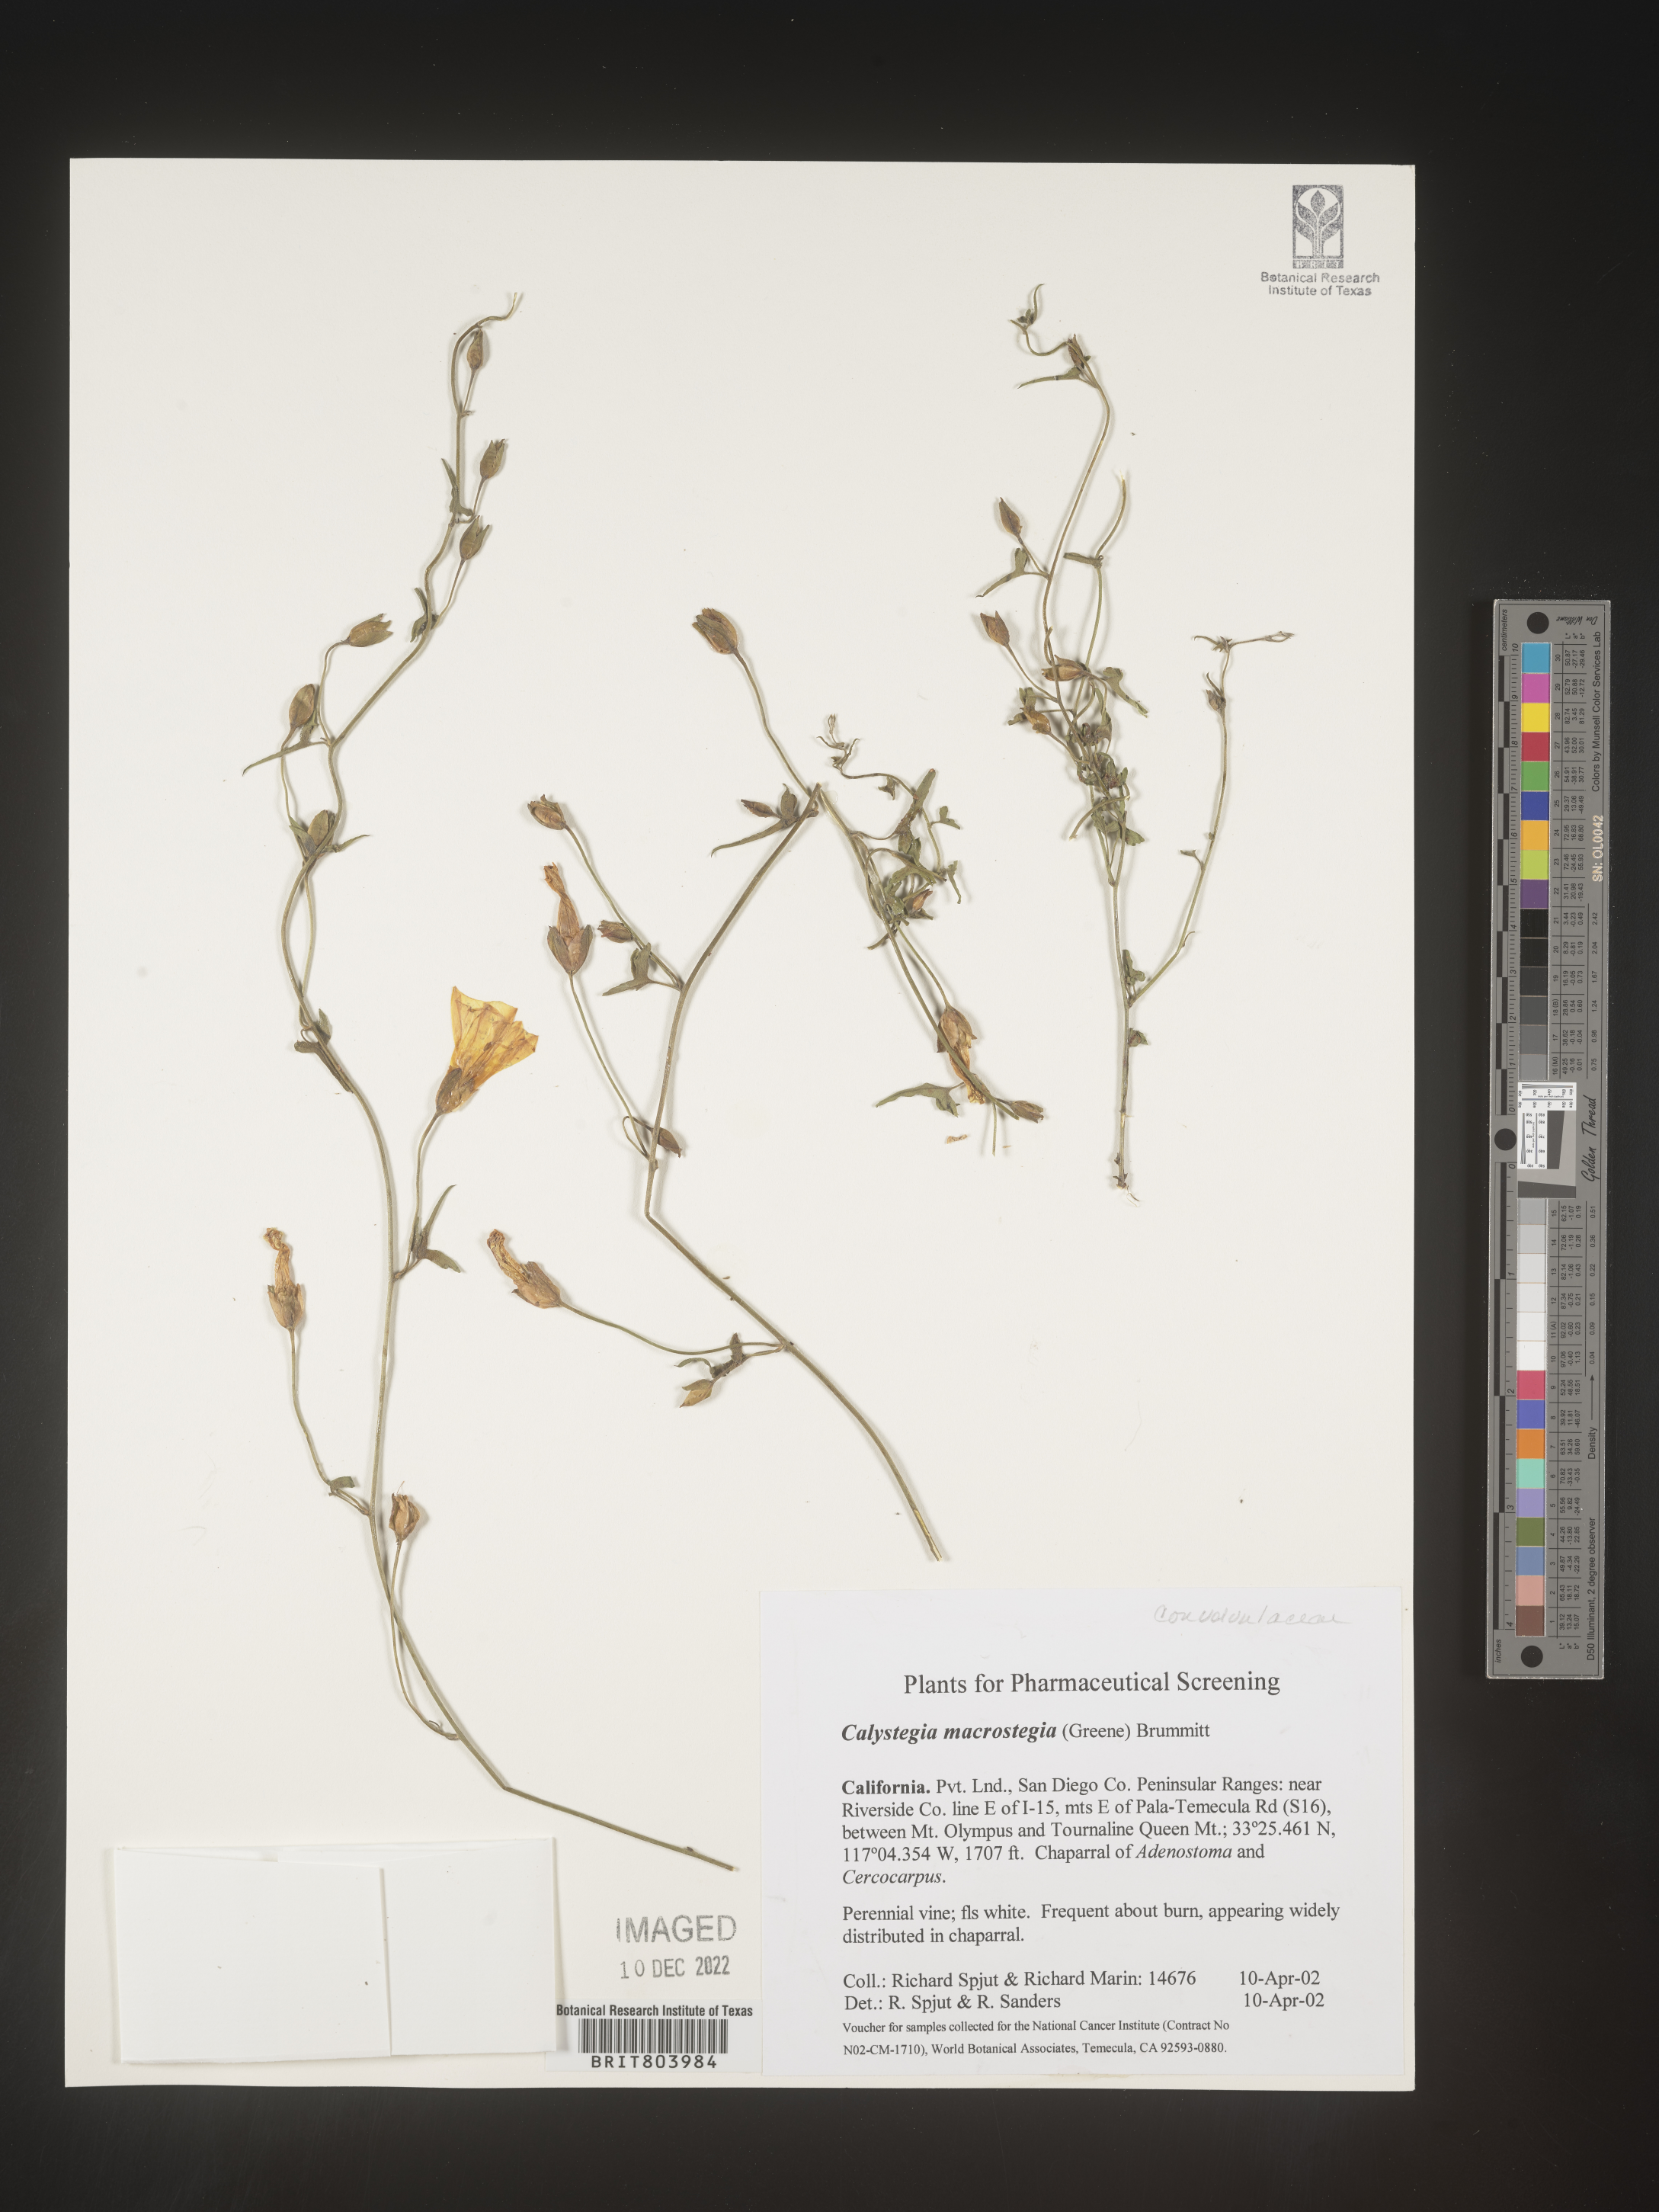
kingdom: Plantae
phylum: Tracheophyta
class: Magnoliopsida
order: Solanales
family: Convolvulaceae
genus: Calystegia
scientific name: Calystegia
